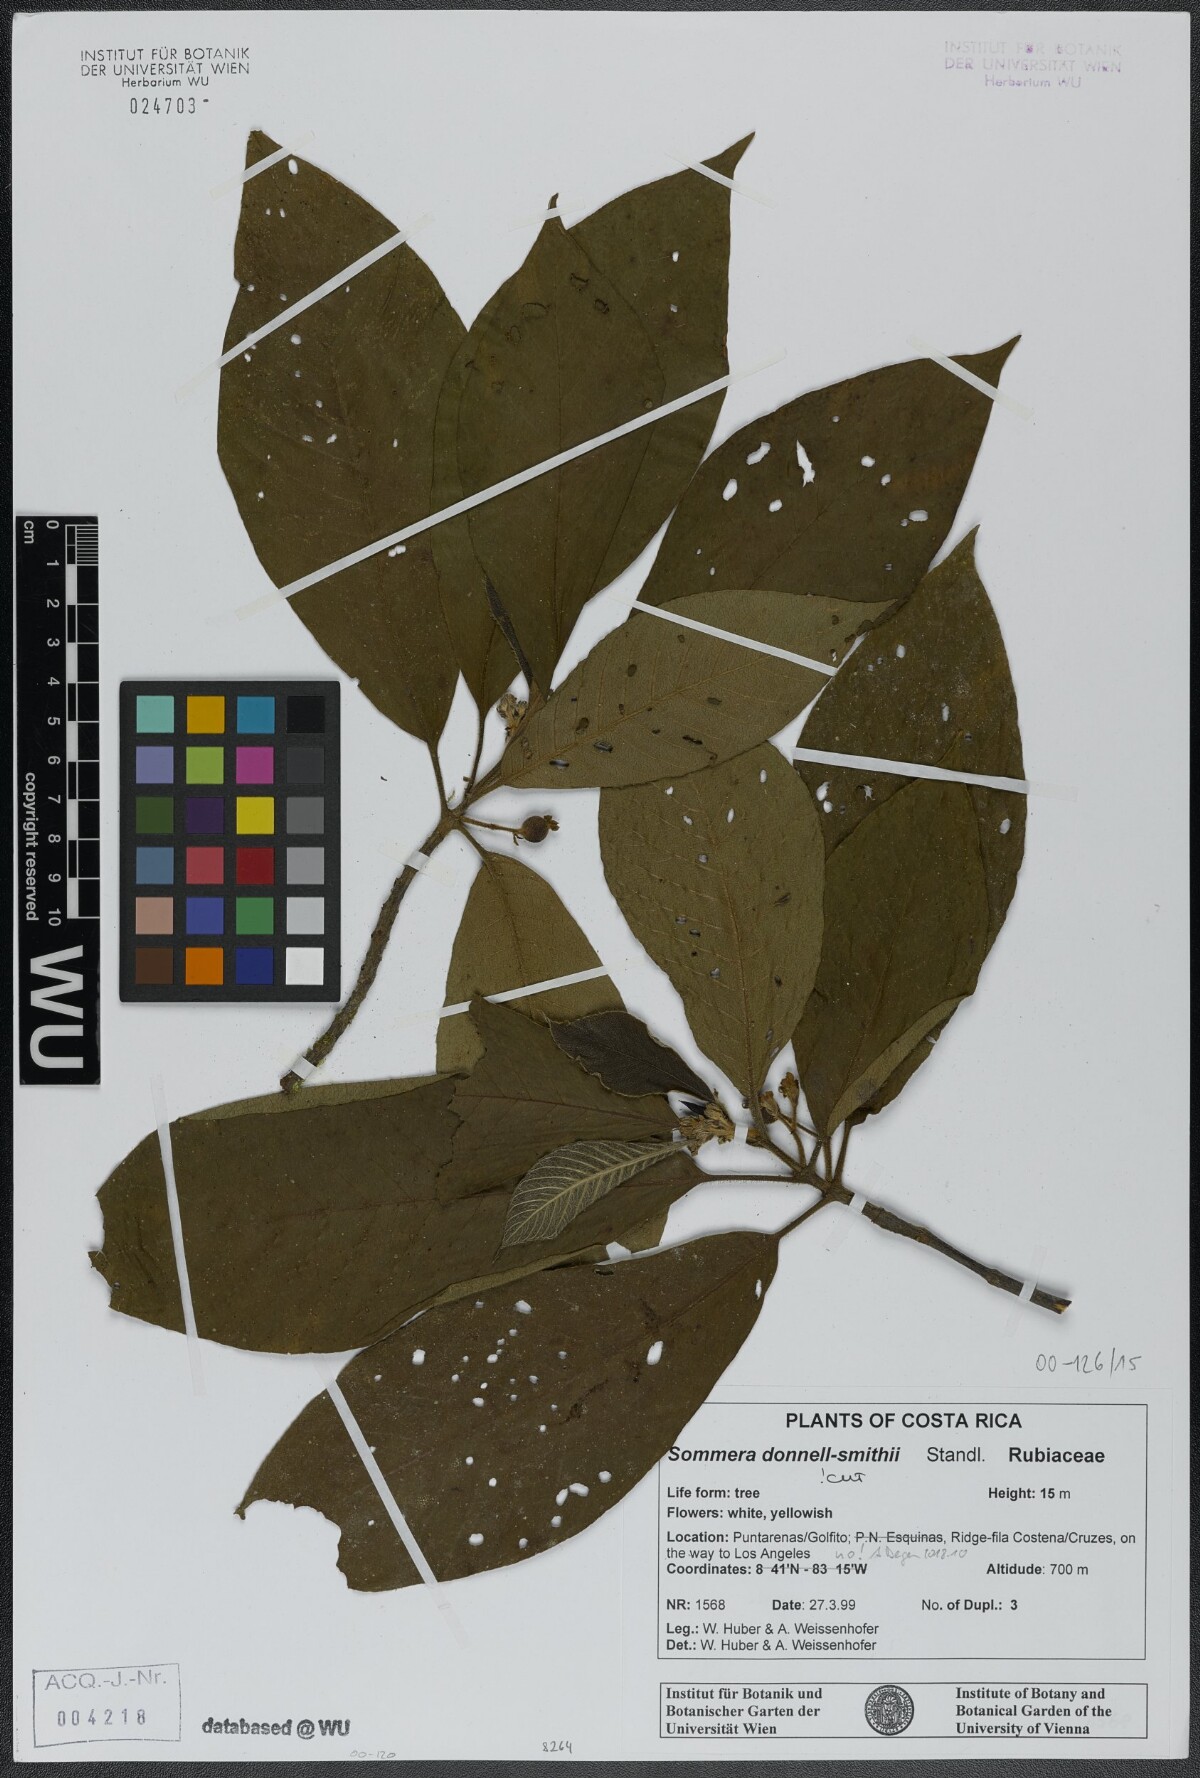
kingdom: Plantae
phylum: Tracheophyta
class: Magnoliopsida
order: Gentianales
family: Rubiaceae
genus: Sommera
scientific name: Sommera donnell-smithii
